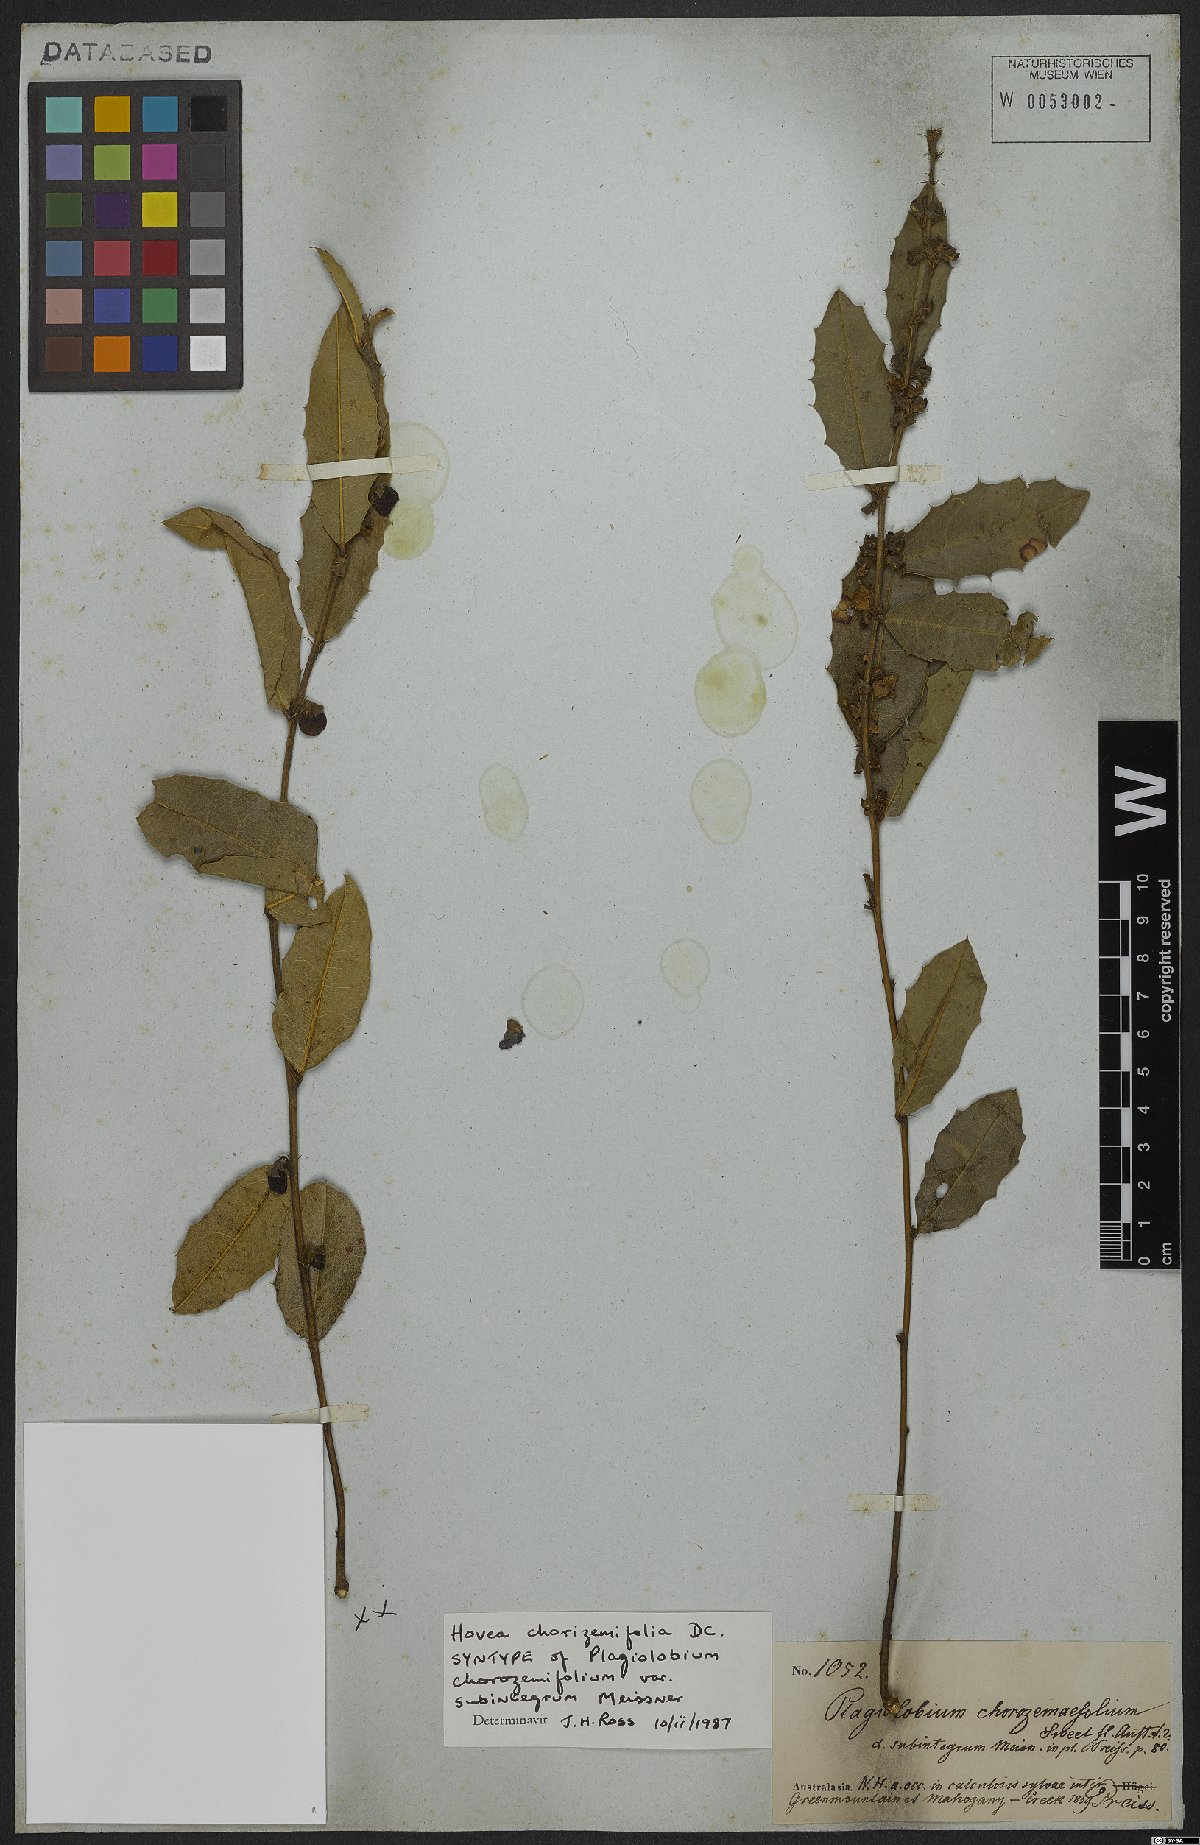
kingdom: Plantae
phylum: Tracheophyta
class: Magnoliopsida
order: Fabales
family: Fabaceae
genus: Hovea
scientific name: Hovea chorizemifolia
